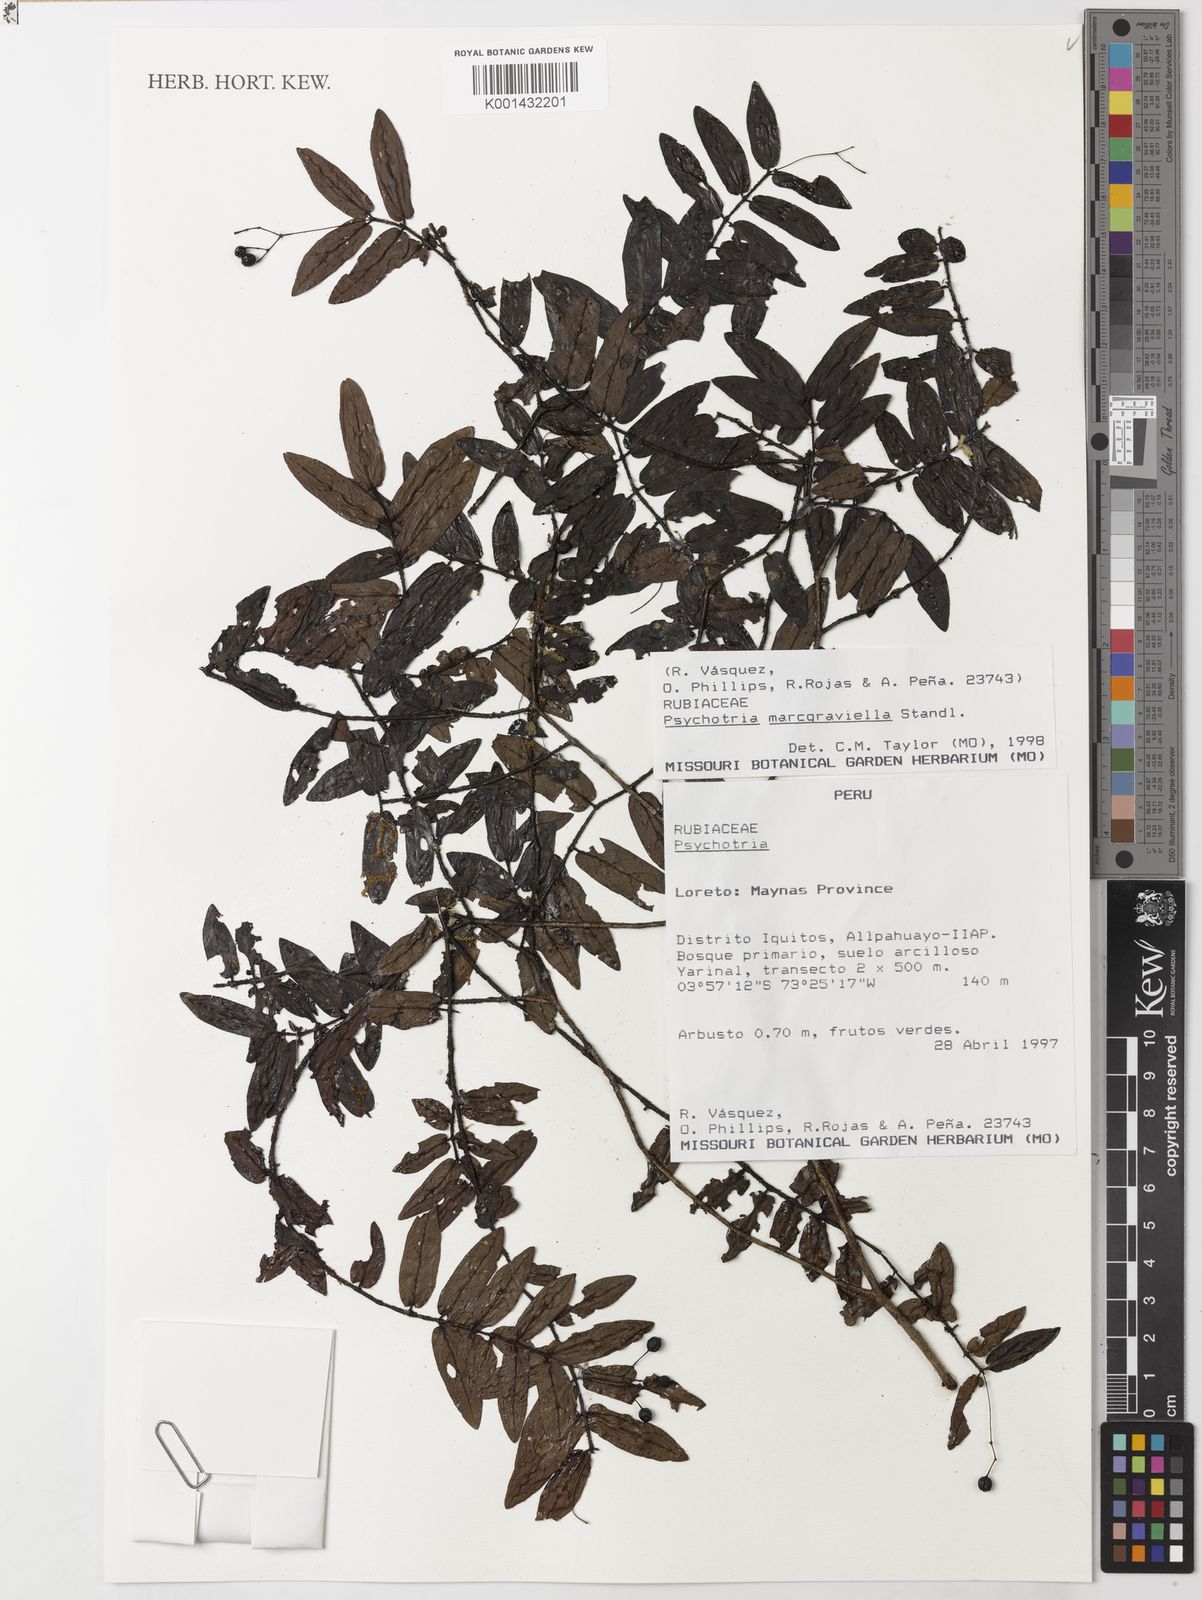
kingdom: Plantae
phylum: Tracheophyta
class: Magnoliopsida
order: Gentianales
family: Rubiaceae
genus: Psychotria
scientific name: Psychotria marcgraviella
